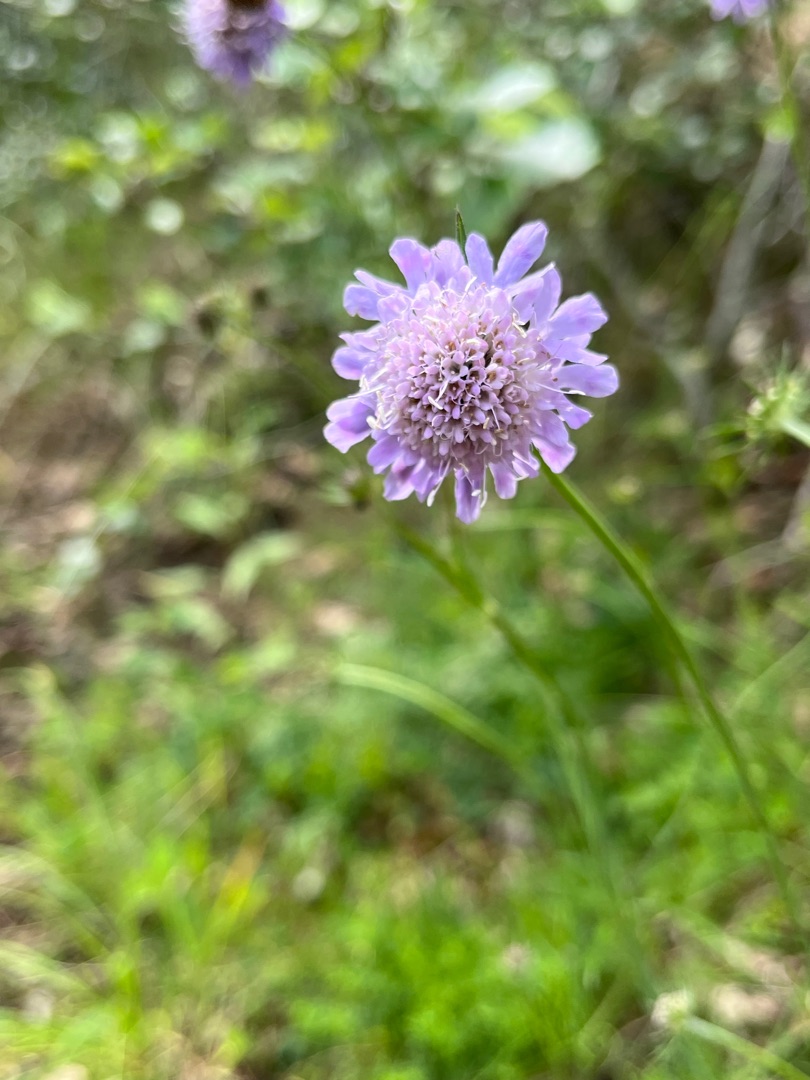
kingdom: Plantae
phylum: Tracheophyta
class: Magnoliopsida
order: Dipsacales
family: Caprifoliaceae
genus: Scabiosa
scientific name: Scabiosa columbaria
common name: Due-skabiose
